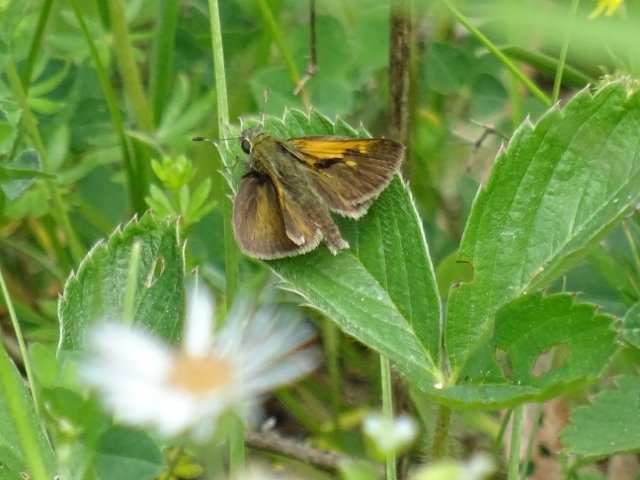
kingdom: Animalia
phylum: Arthropoda
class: Insecta
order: Lepidoptera
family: Hesperiidae
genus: Polites
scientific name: Polites themistocles
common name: Tawny-edged Skipper
